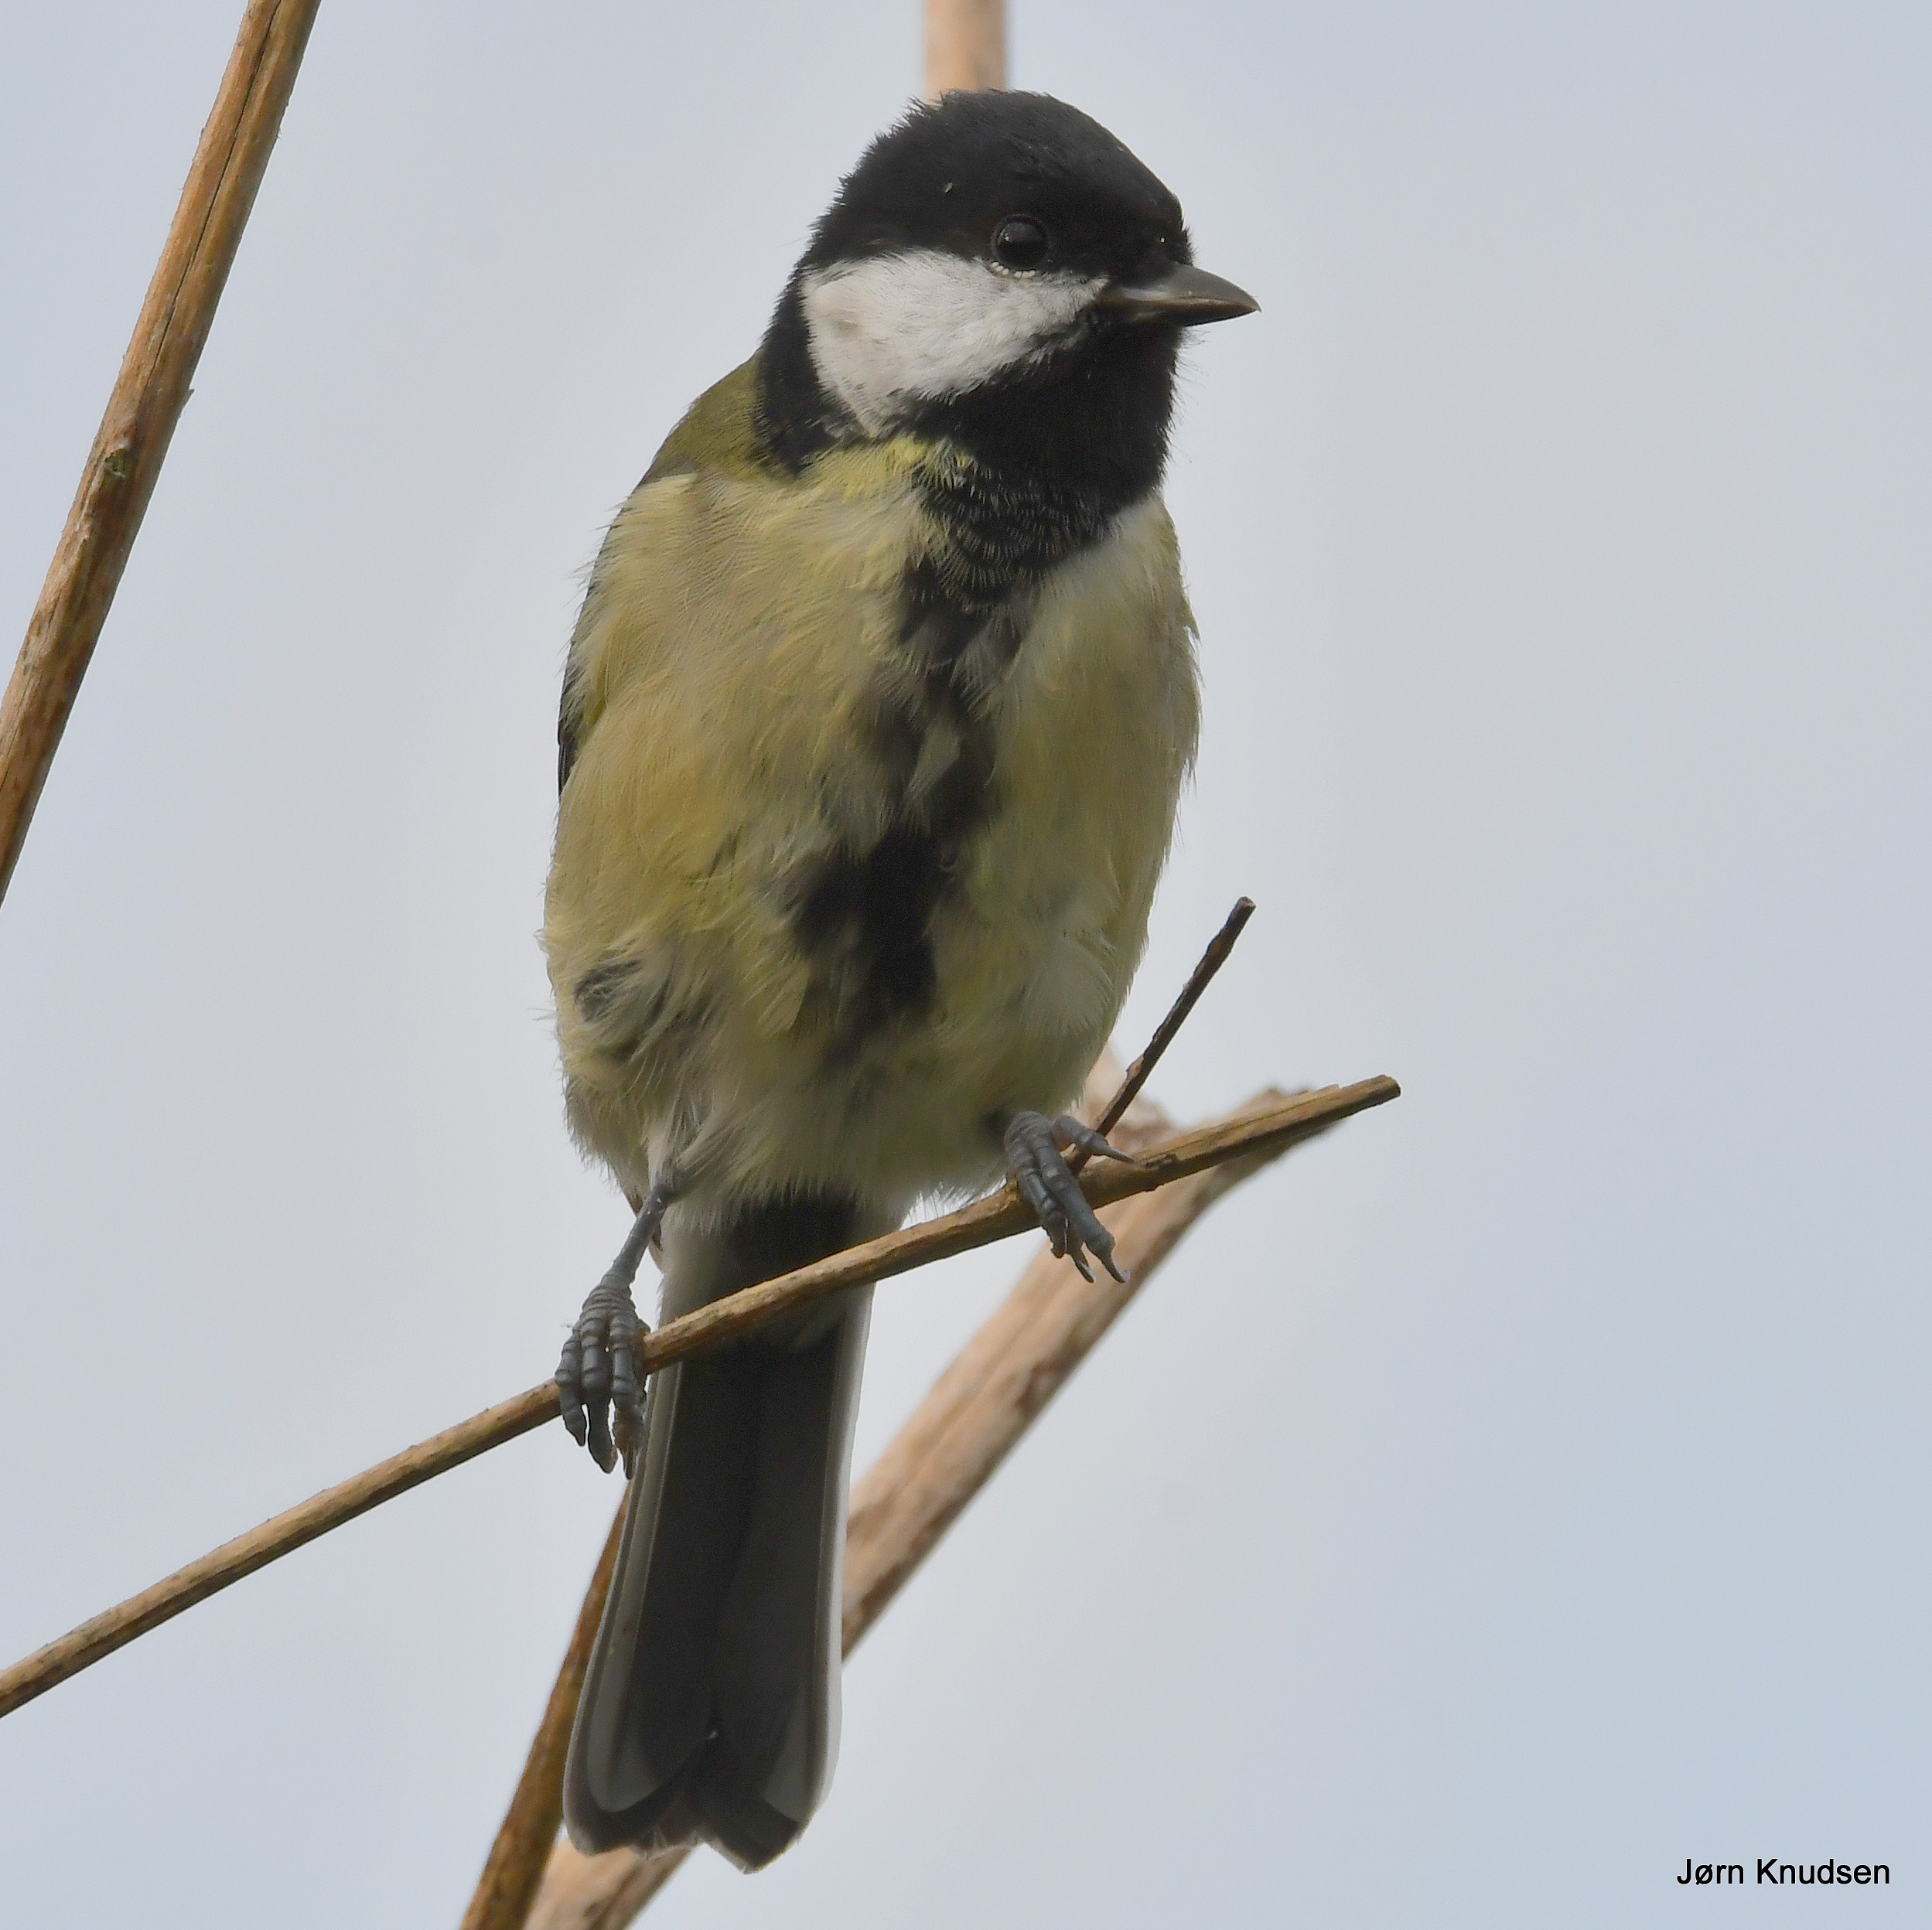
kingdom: Animalia
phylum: Chordata
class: Aves
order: Passeriformes
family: Paridae
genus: Parus
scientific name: Parus major
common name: Musvit
